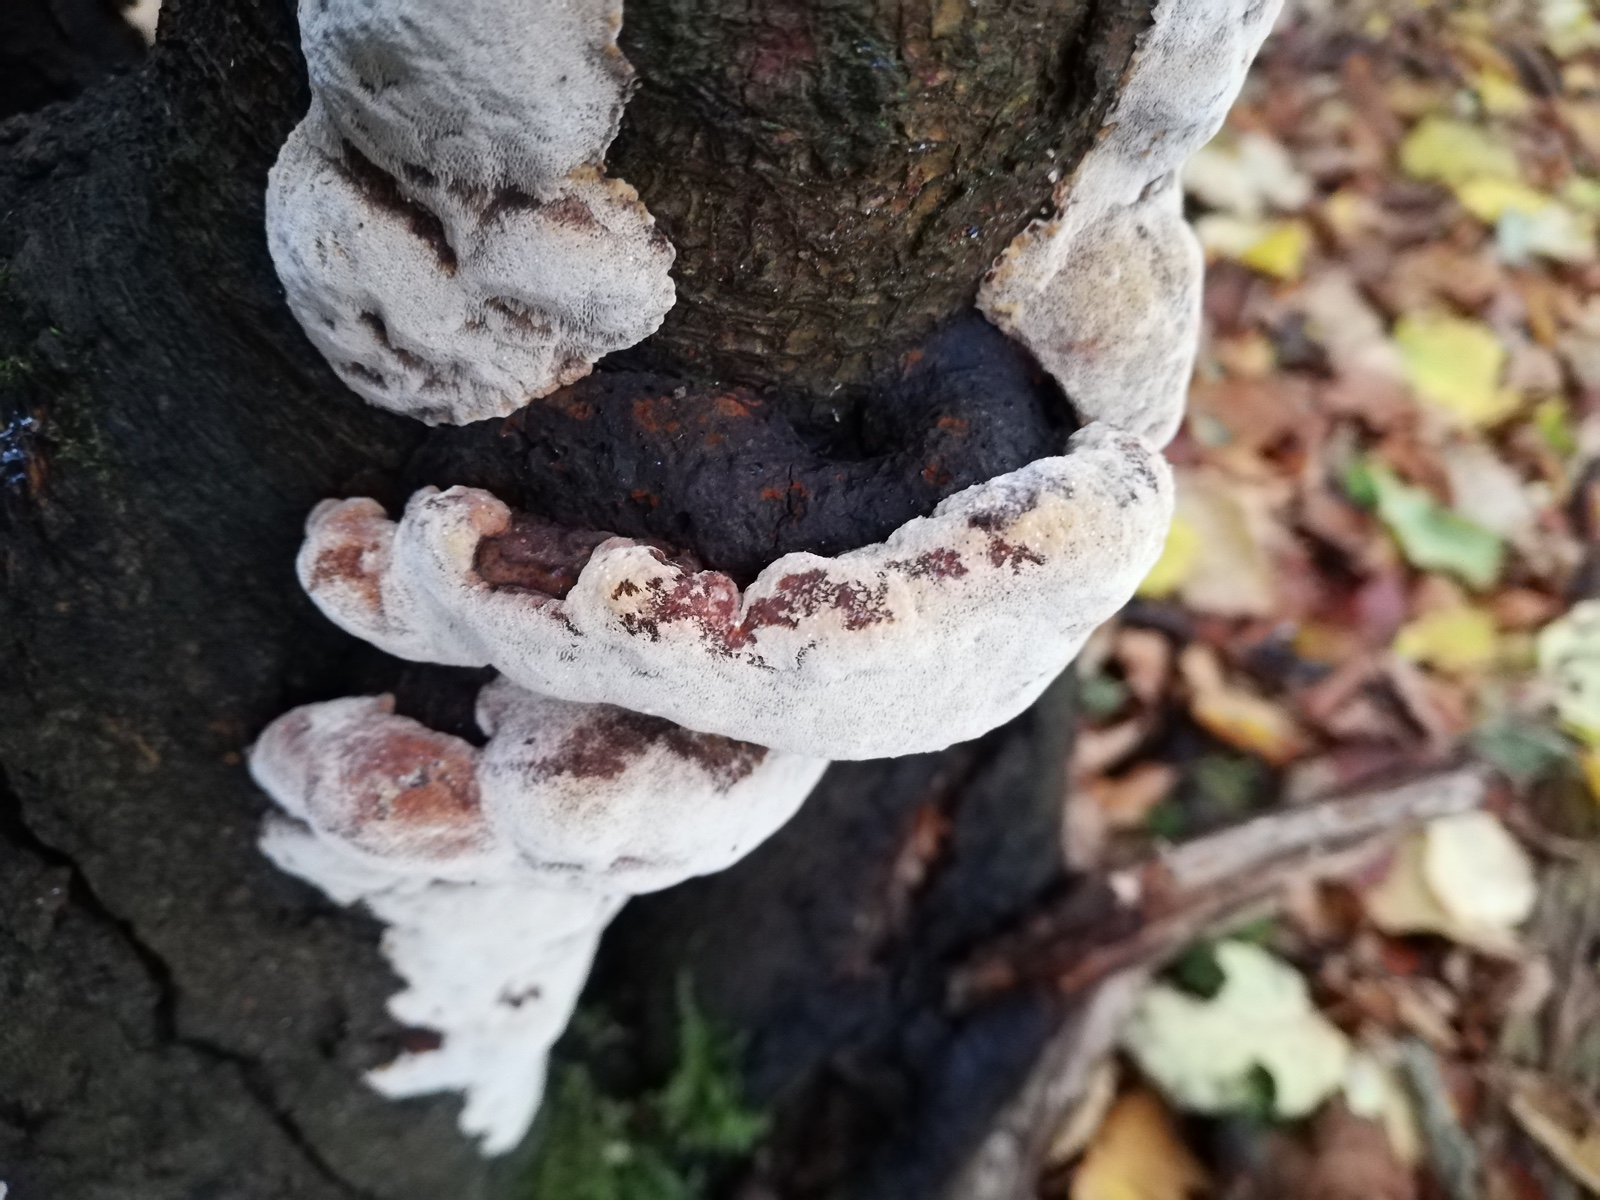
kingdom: Fungi
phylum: Basidiomycota
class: Agaricomycetes
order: Hymenochaetales
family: Hymenochaetaceae
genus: Phellinus
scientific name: Phellinus pomaceus
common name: blomme-ildporesvamp
